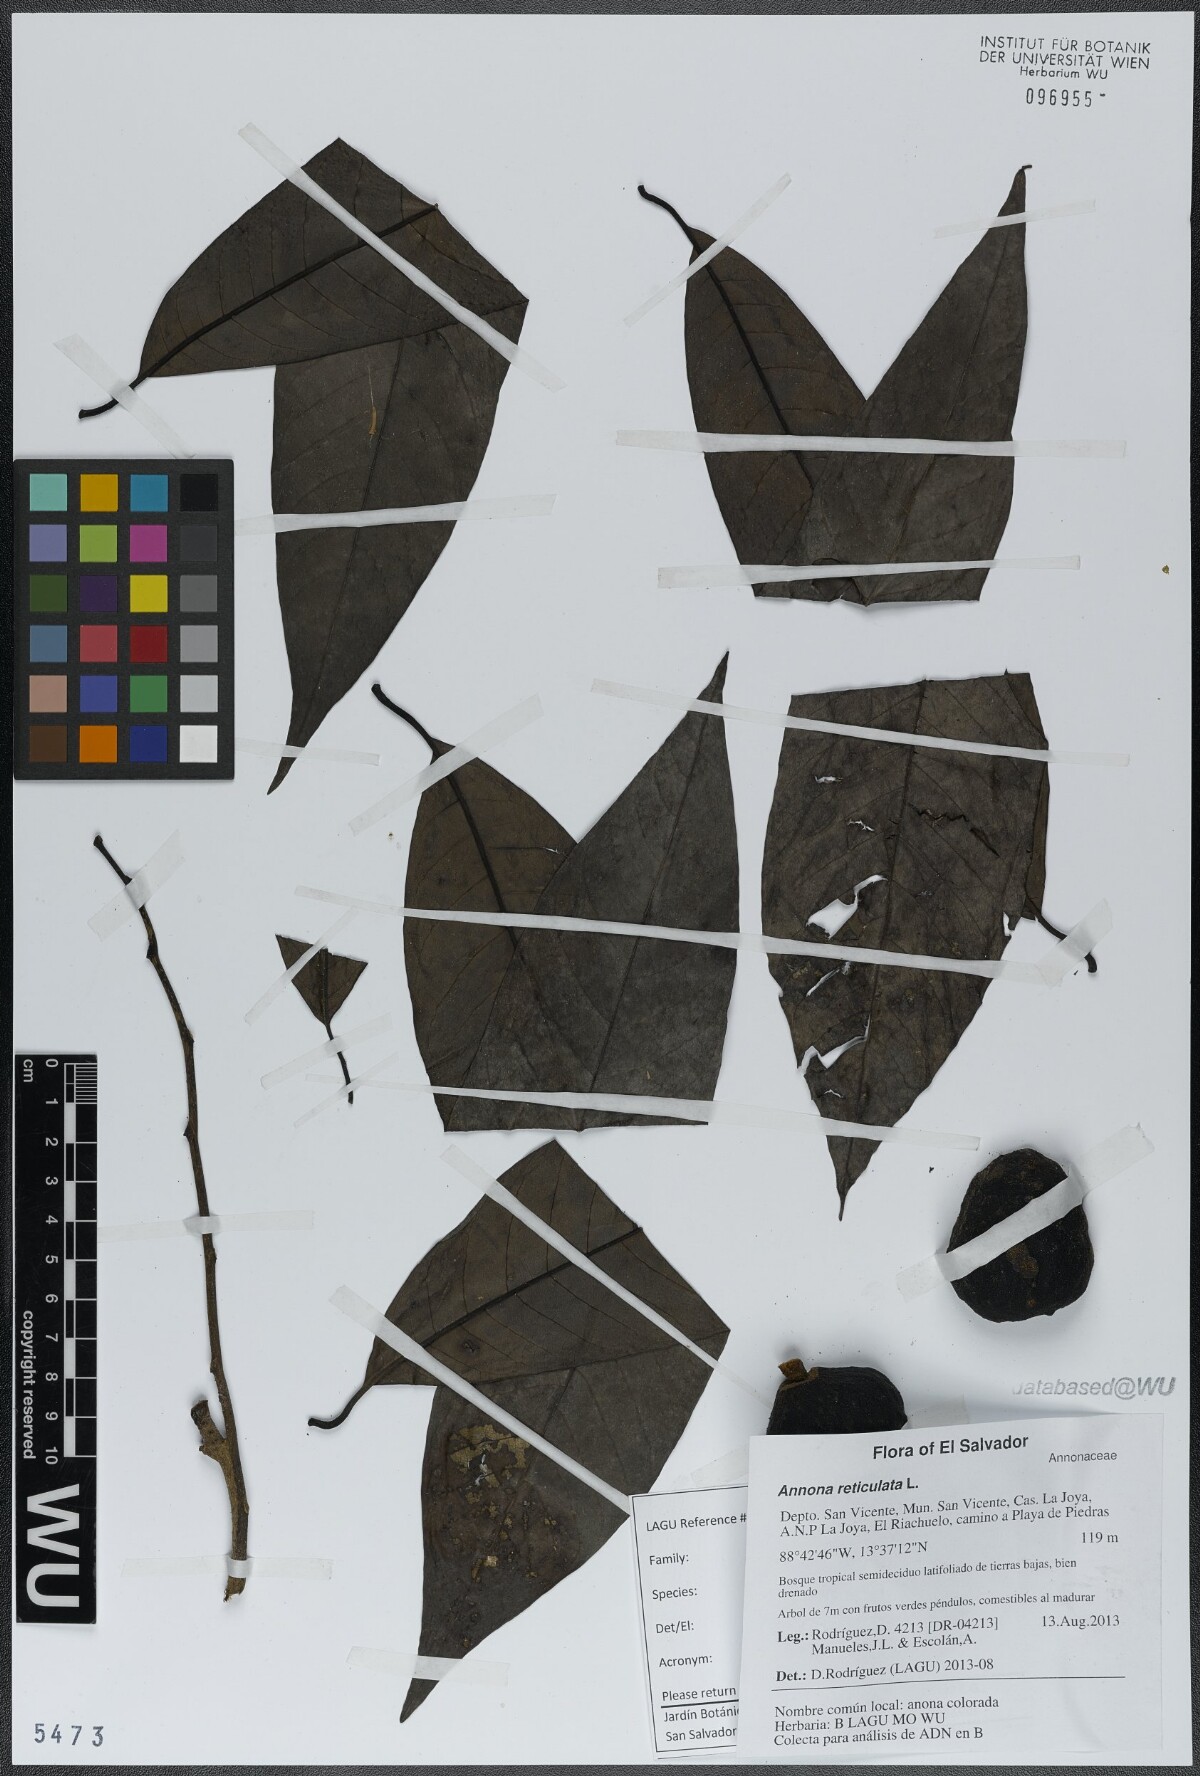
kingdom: Plantae
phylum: Tracheophyta
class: Magnoliopsida
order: Magnoliales
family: Annonaceae
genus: Annona
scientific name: Annona reticulata
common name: Custard apple
